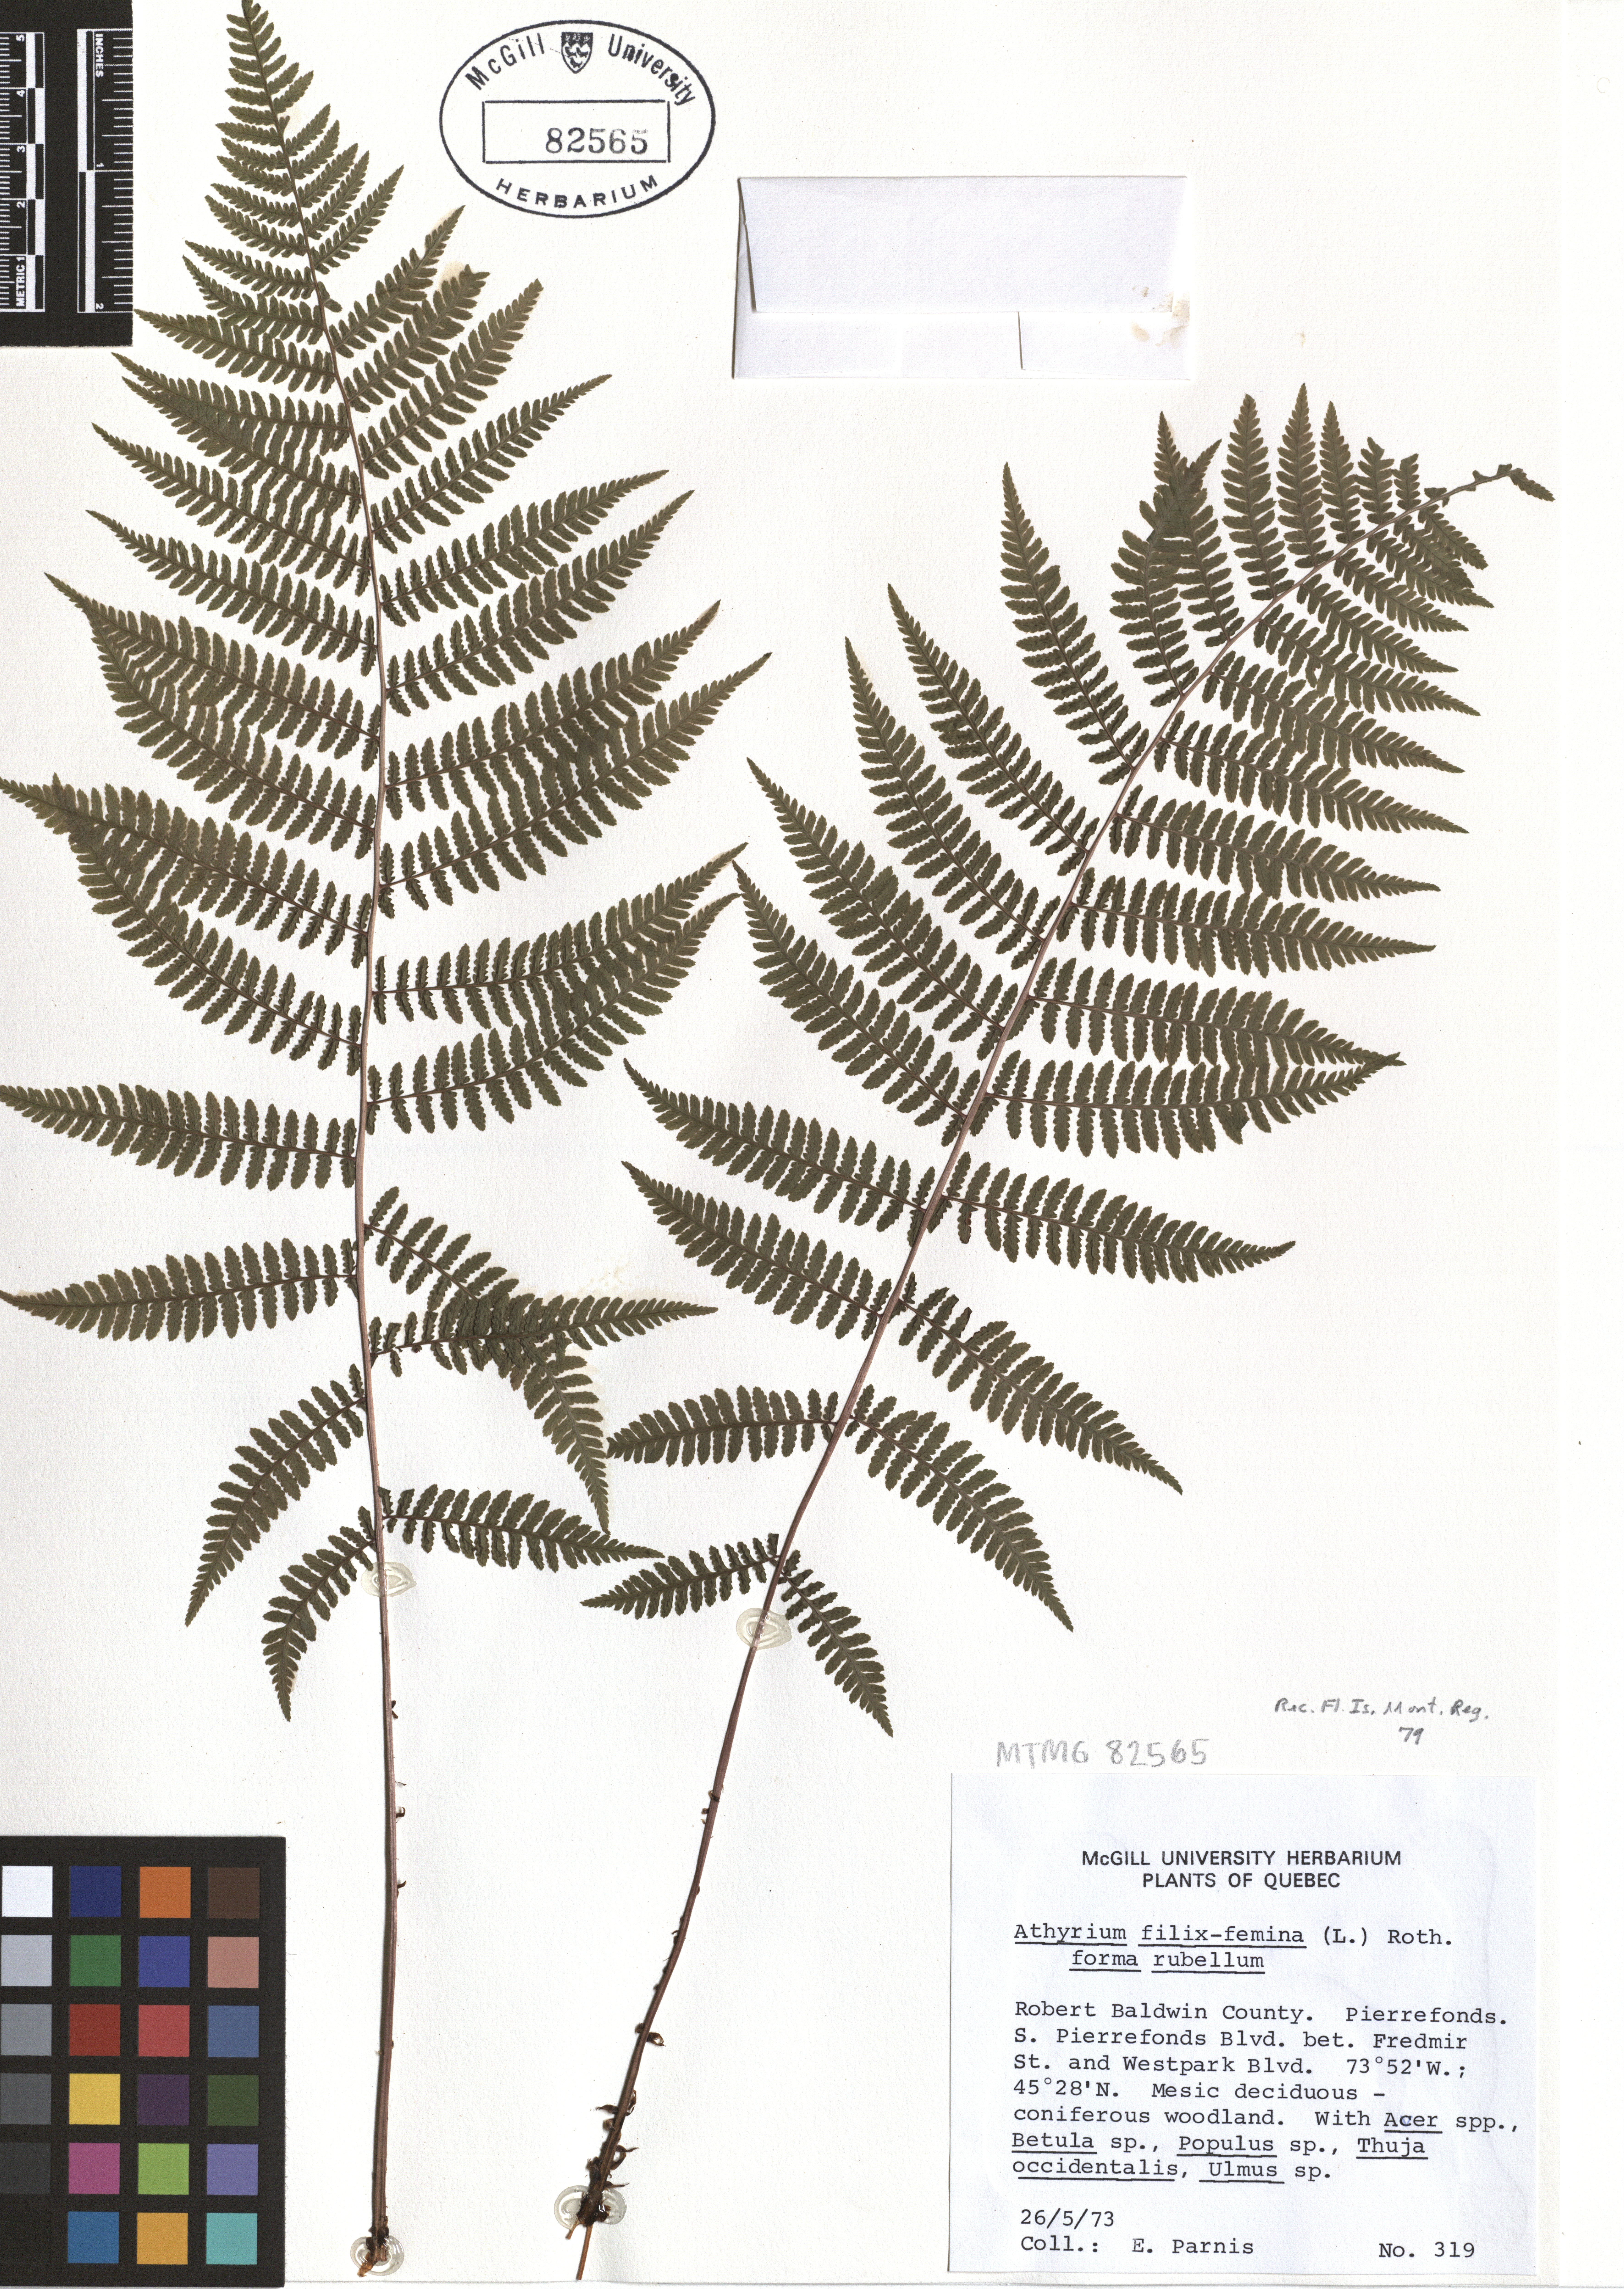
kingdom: Plantae
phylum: Tracheophyta
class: Polypodiopsida
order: Polypodiales
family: Athyriaceae
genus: Athyrium
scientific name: Athyrium filix-femina
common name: Lady fern
